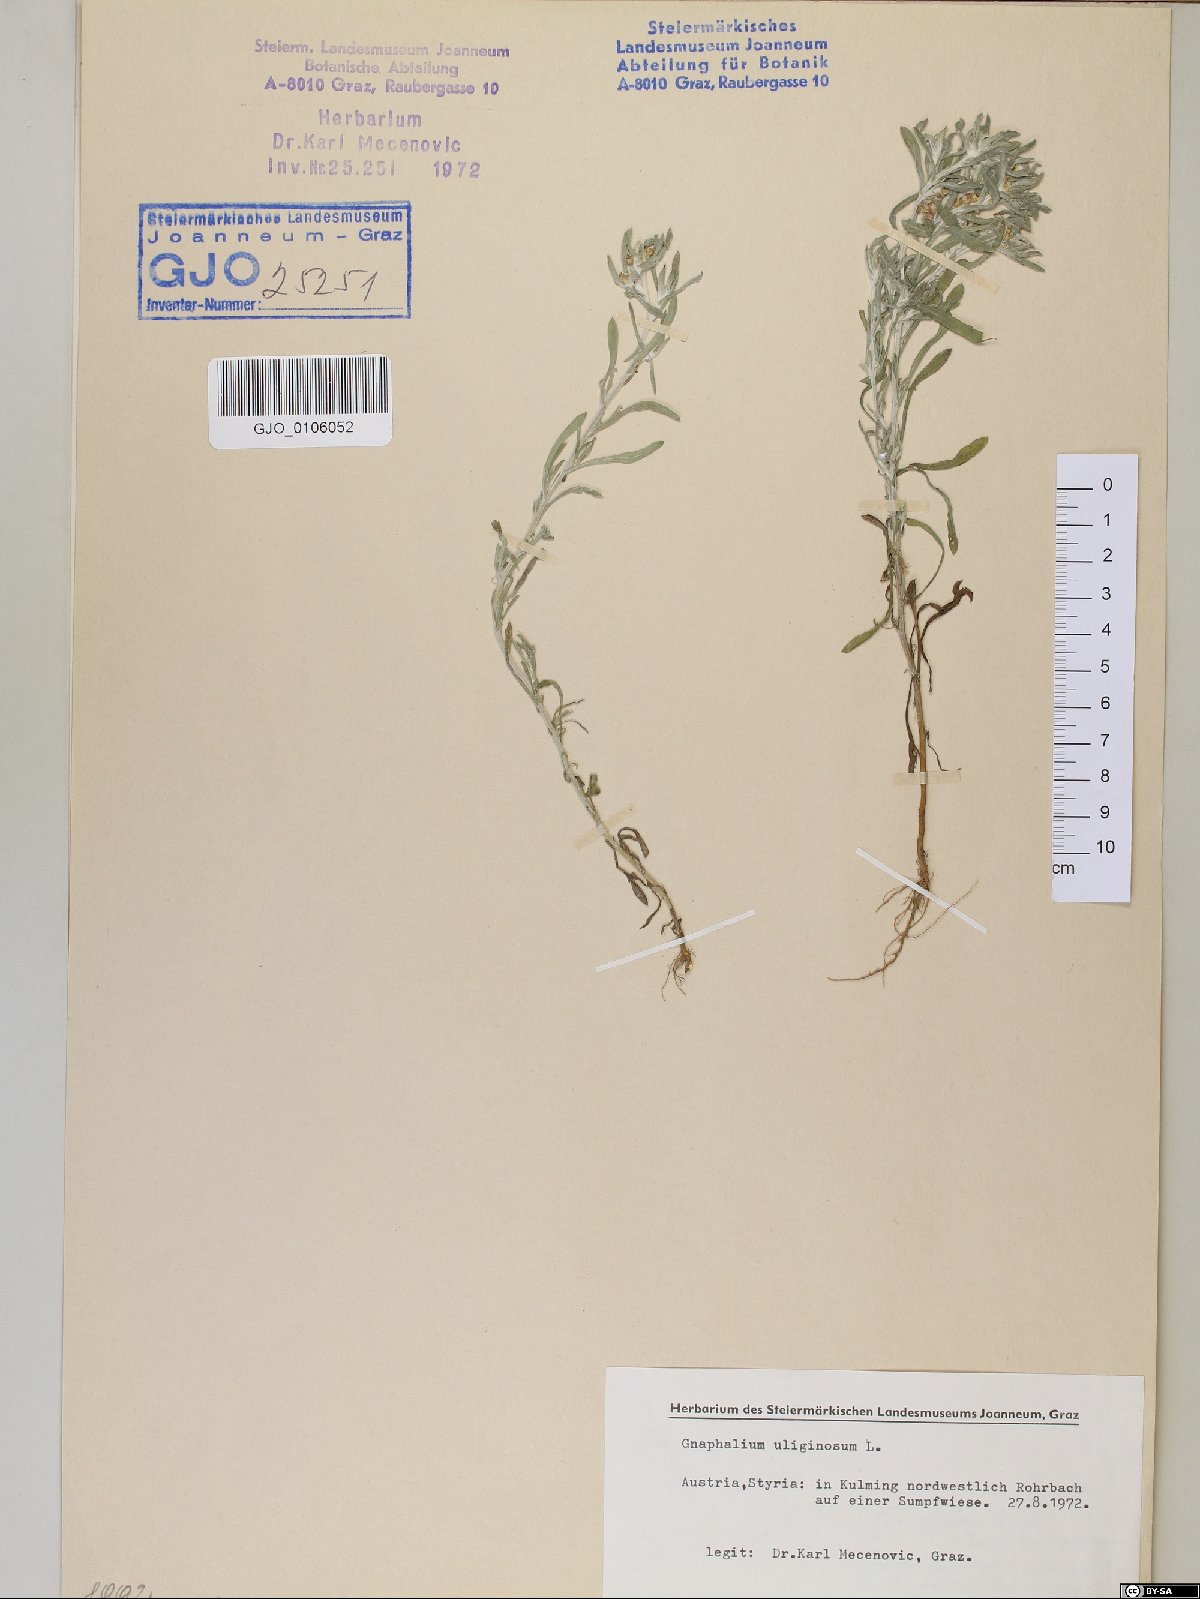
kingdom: Plantae
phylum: Tracheophyta
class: Magnoliopsida
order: Asterales
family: Asteraceae
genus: Gnaphalium
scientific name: Gnaphalium uliginosum
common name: Marsh cudweed
